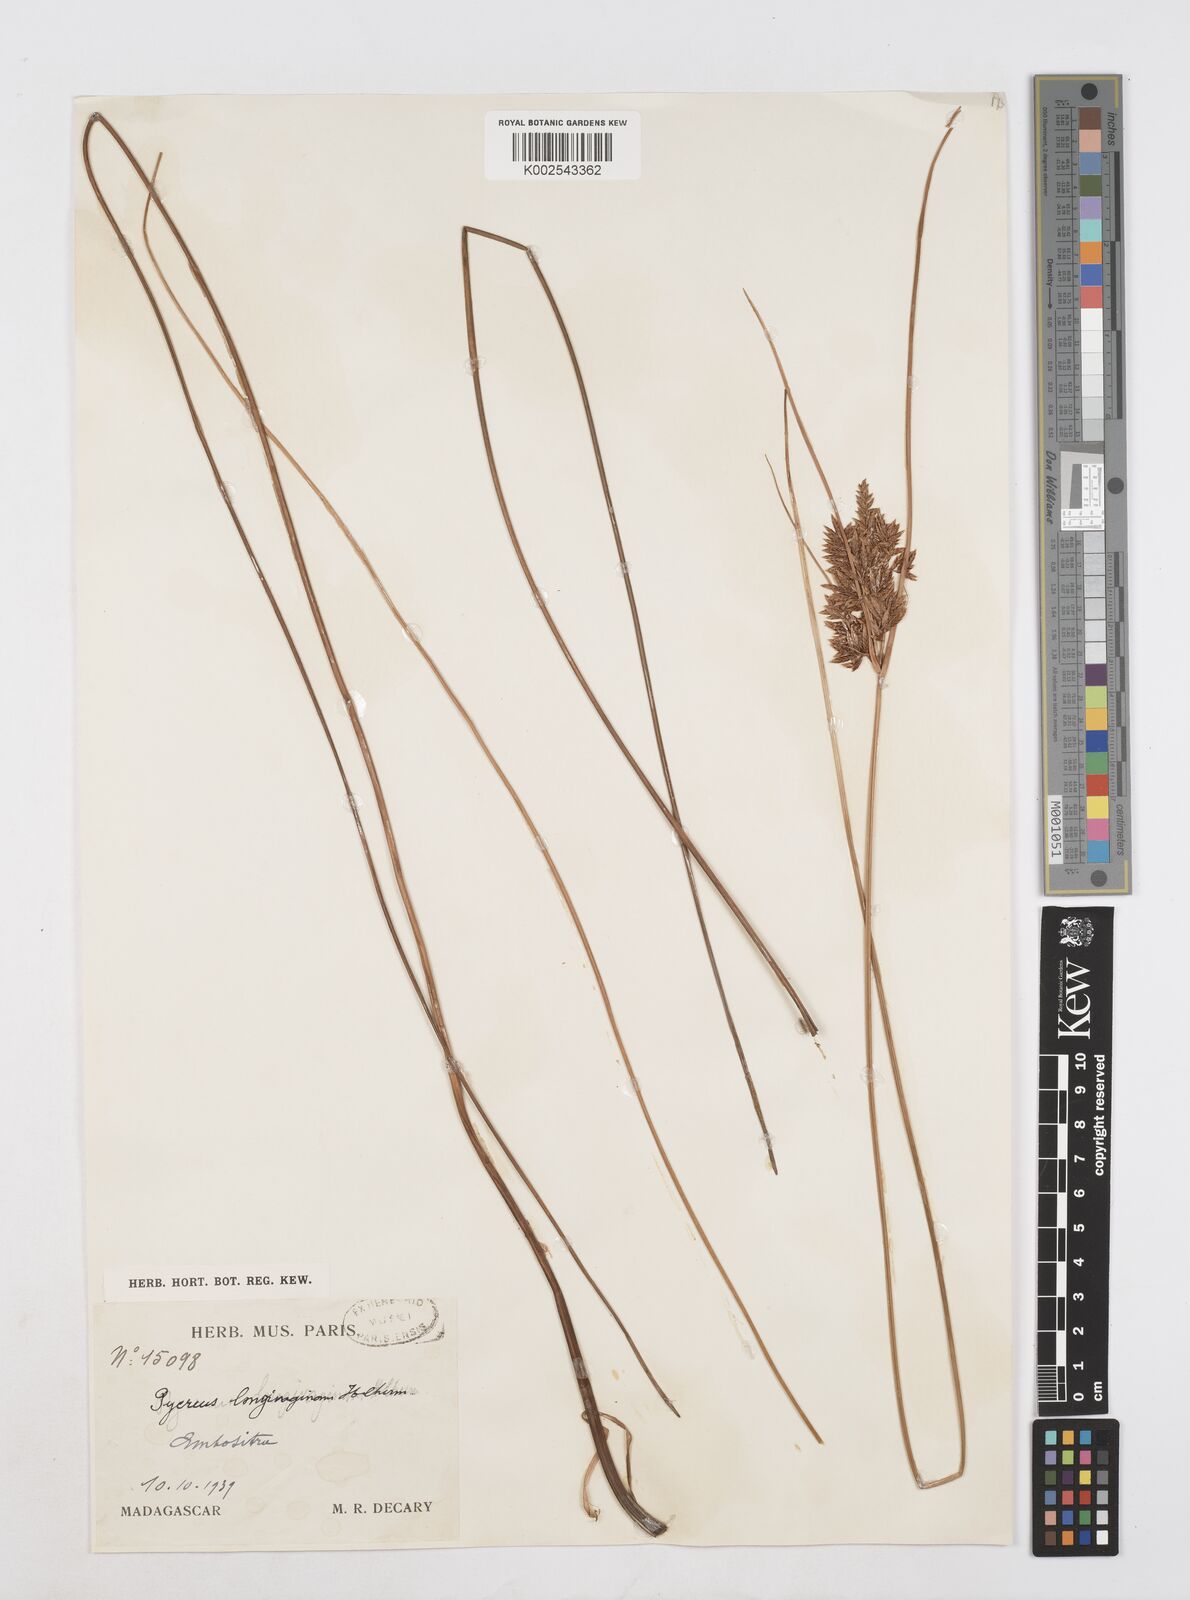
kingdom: Plantae
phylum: Tracheophyta
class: Liliopsida
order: Poales
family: Cyperaceae
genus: Cyperus
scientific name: Cyperus longivaginans
